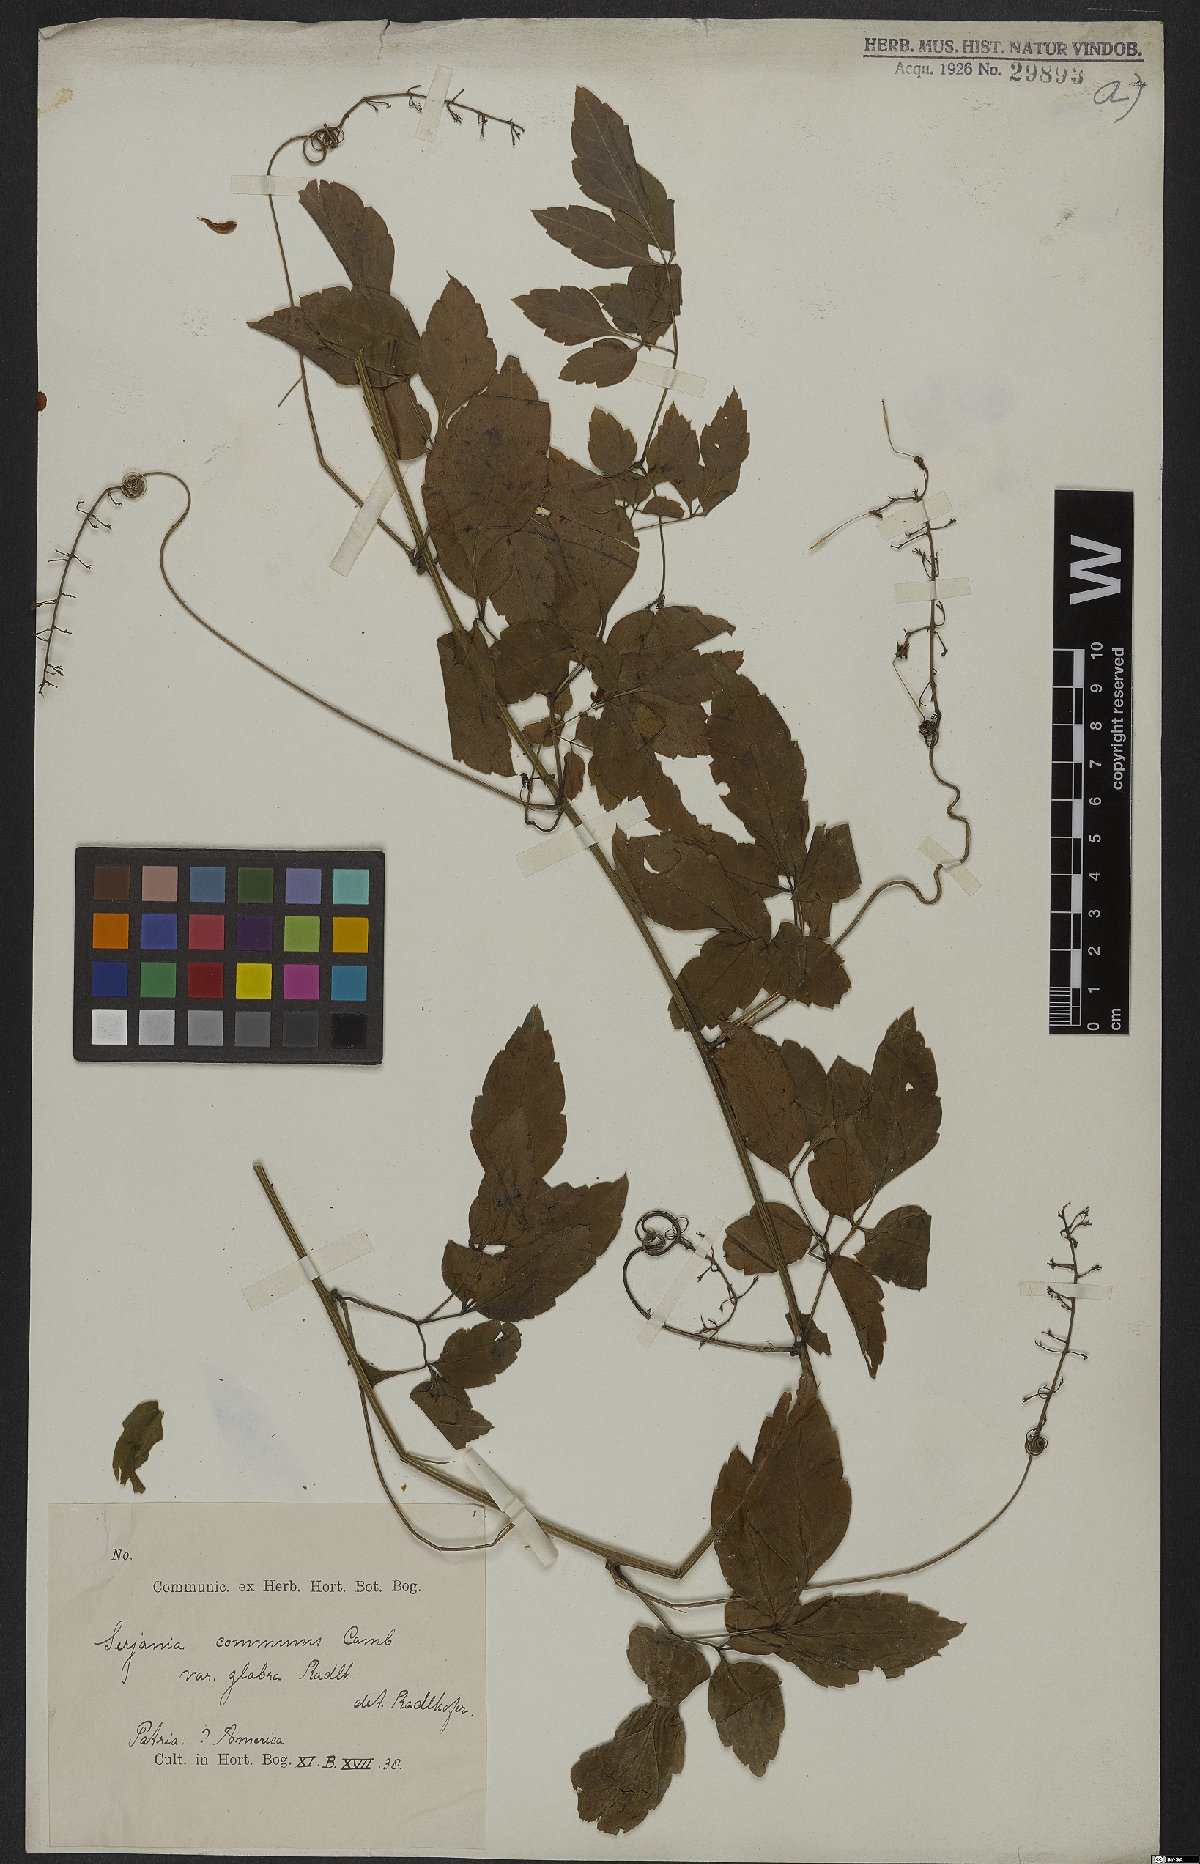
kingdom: Plantae
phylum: Tracheophyta
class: Magnoliopsida
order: Sapindales
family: Sapindaceae
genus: Serjania
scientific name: Serjania communis
